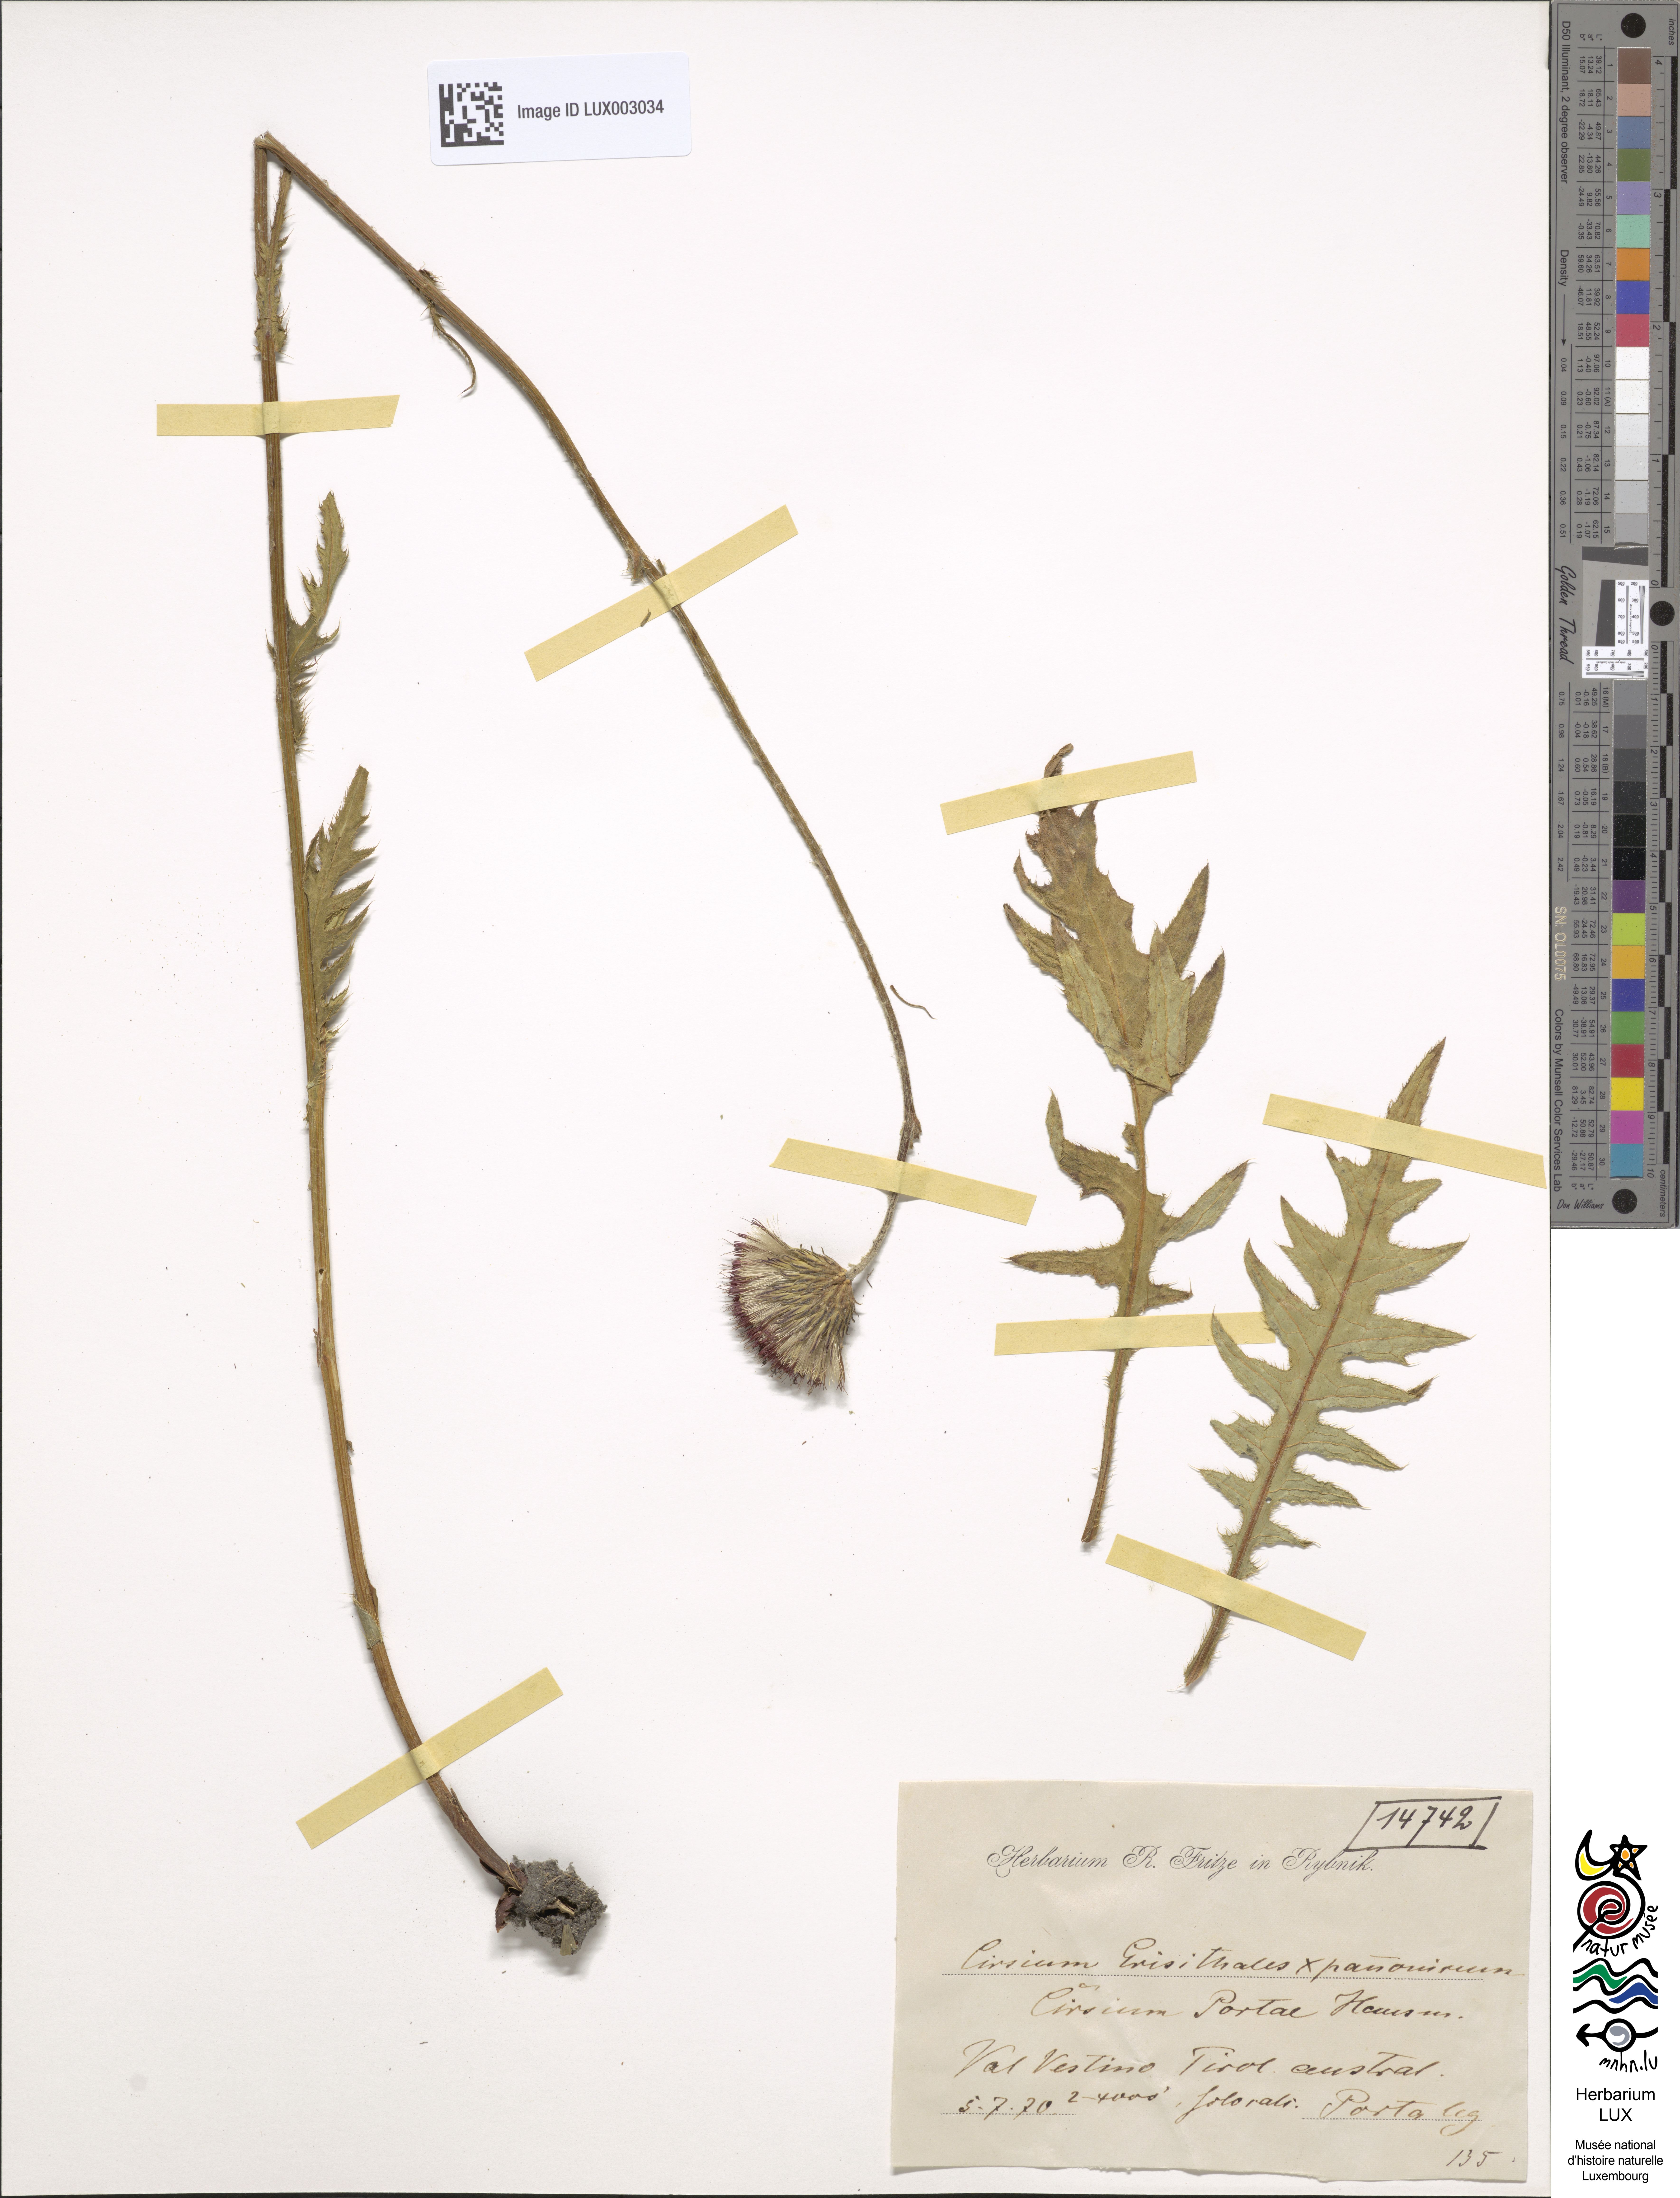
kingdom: Plantae
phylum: Tracheophyta
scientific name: Tracheophyta
